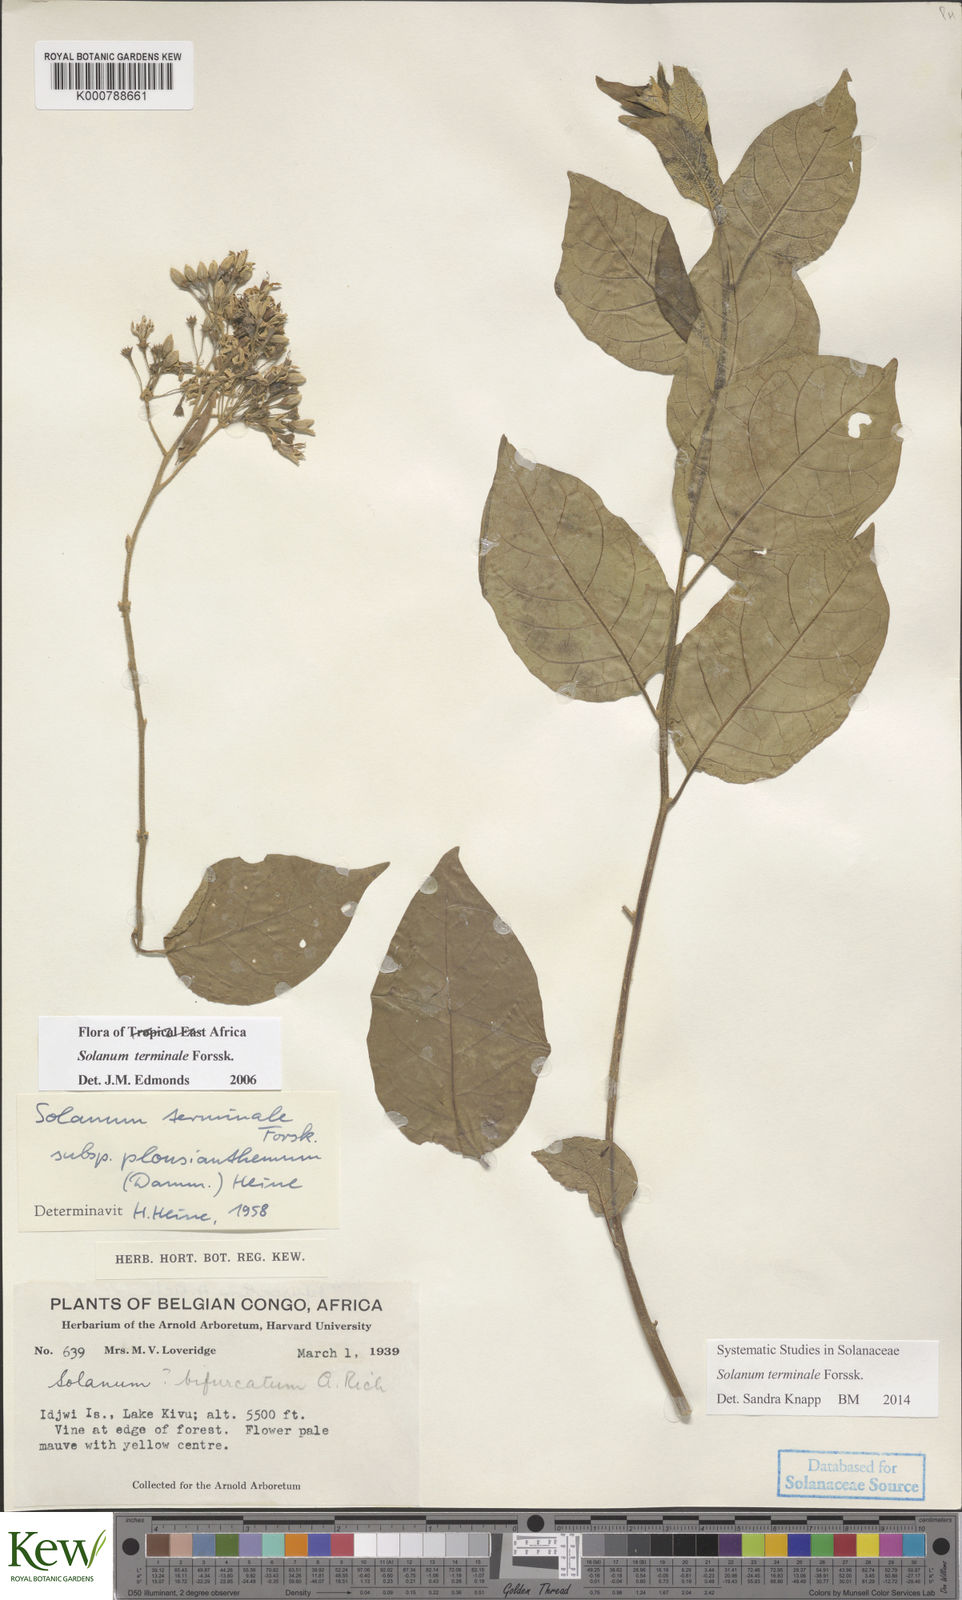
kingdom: Plantae
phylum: Tracheophyta
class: Magnoliopsida
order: Solanales
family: Solanaceae
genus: Solanum
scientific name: Solanum terminale
